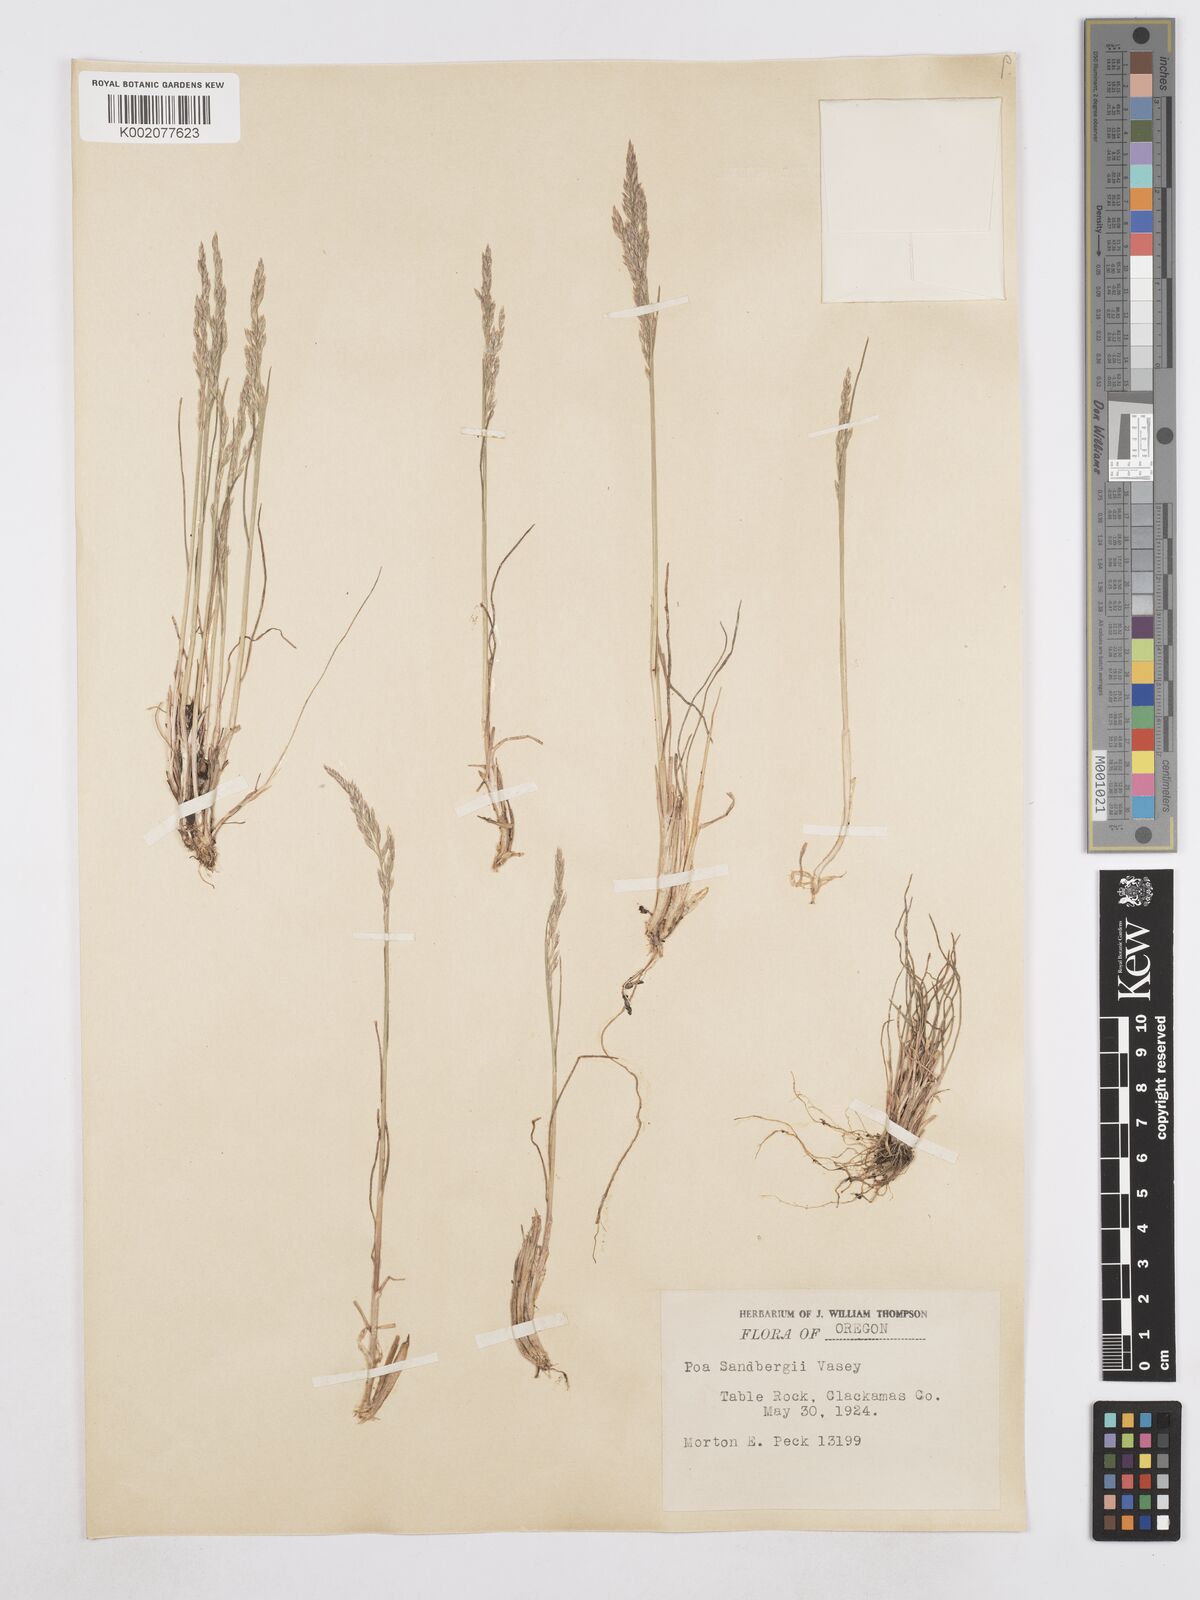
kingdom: Plantae
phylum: Tracheophyta
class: Liliopsida
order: Poales
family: Poaceae
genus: Poa
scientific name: Poa secunda
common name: Sandberg bluegrass
